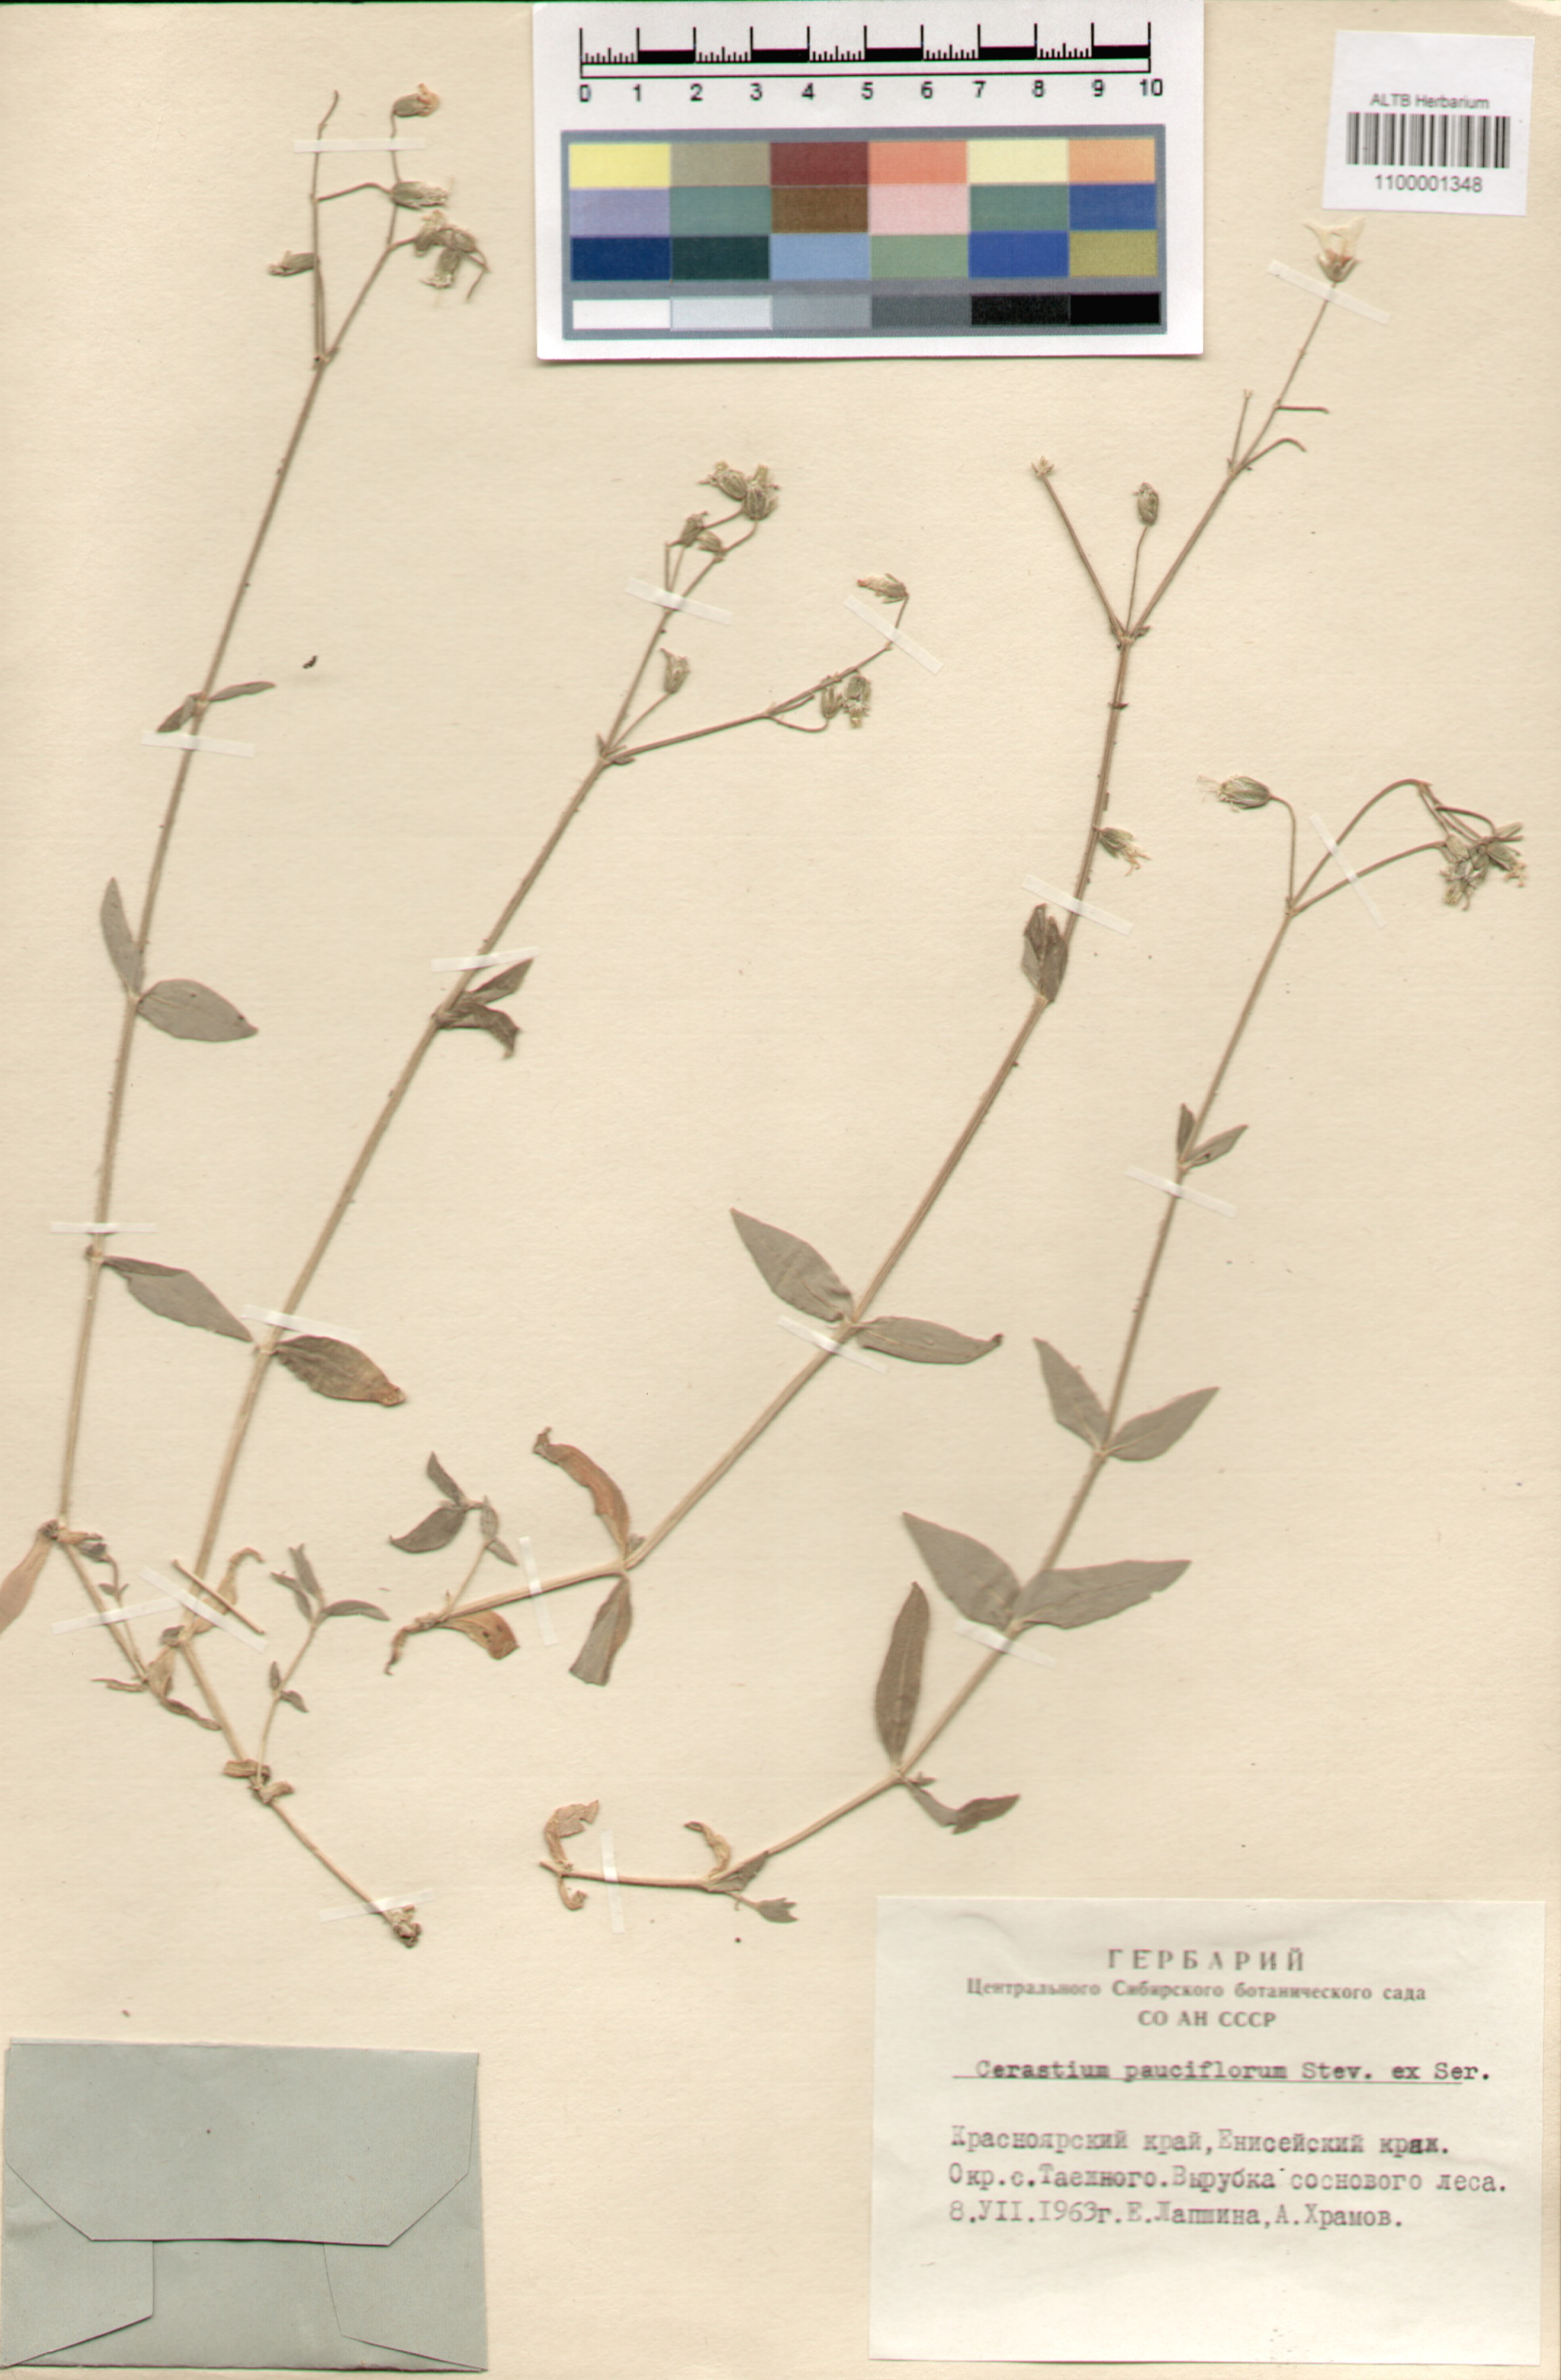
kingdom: Plantae
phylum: Tracheophyta
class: Magnoliopsida
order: Caryophyllales
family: Caryophyllaceae
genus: Cerastium
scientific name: Cerastium pauciflorum
